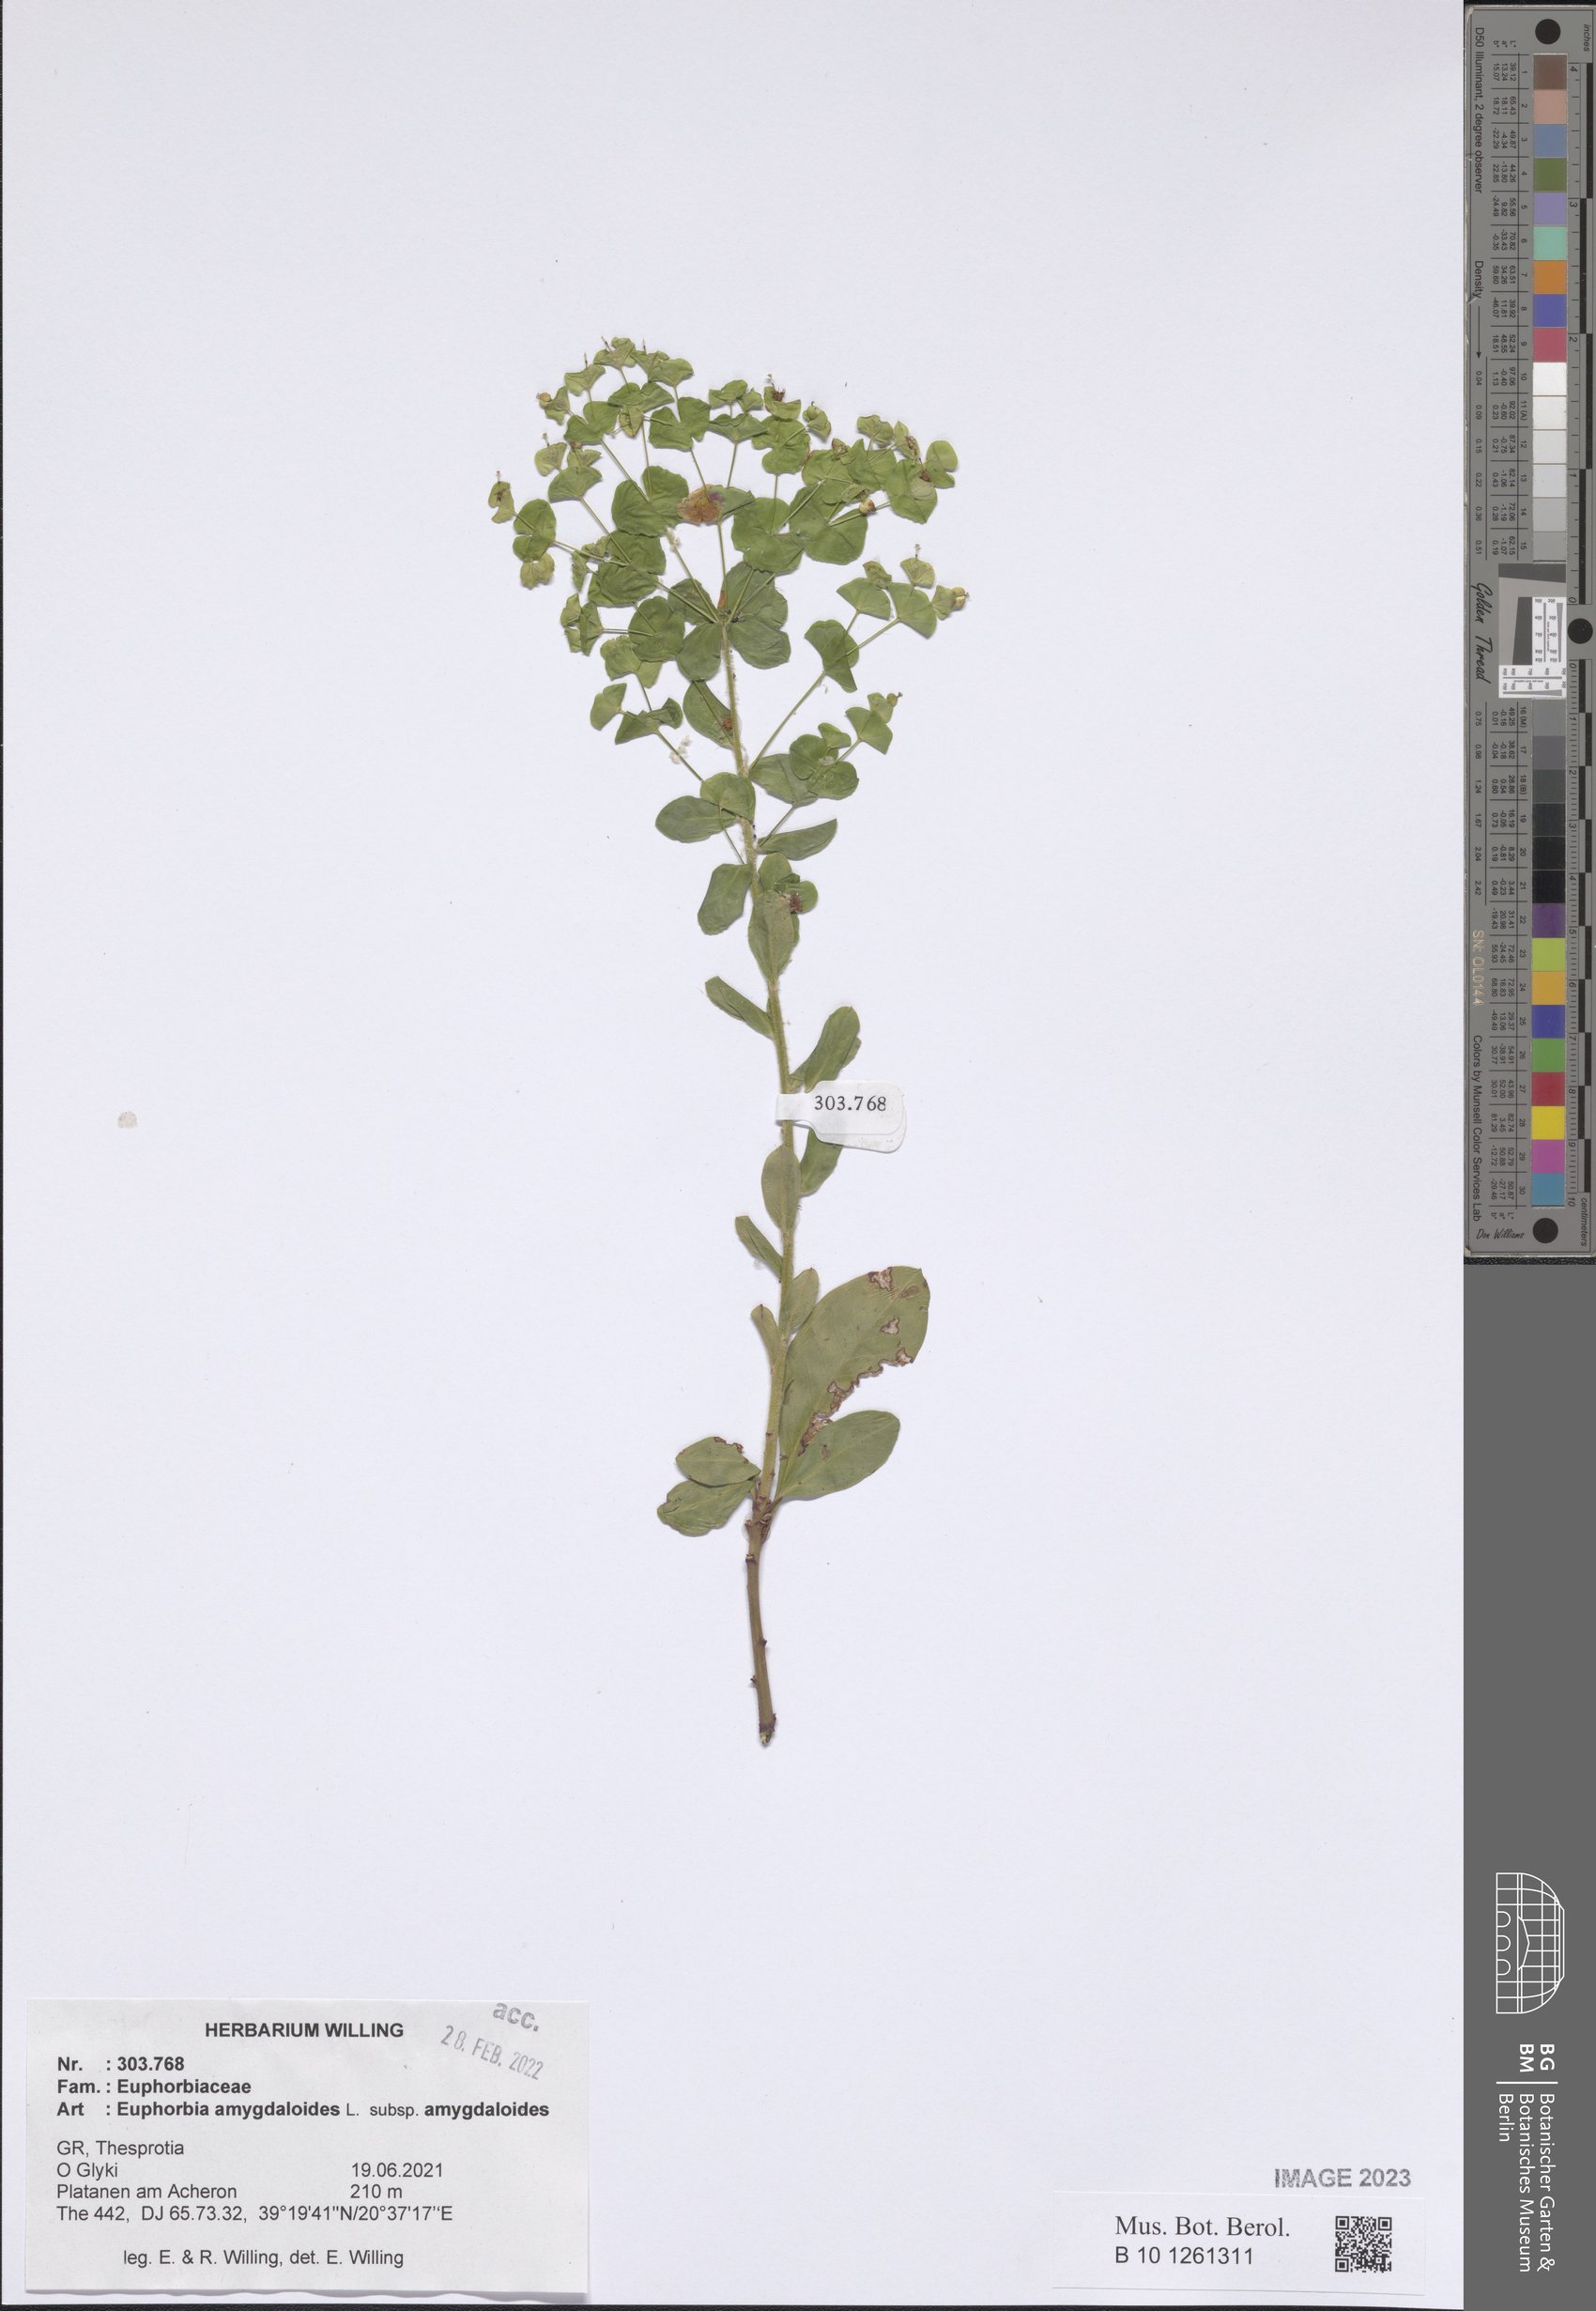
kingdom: Plantae
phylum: Tracheophyta
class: Magnoliopsida
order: Malpighiales
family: Euphorbiaceae
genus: Euphorbia
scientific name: Euphorbia amygdaloides
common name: Wood spurge
